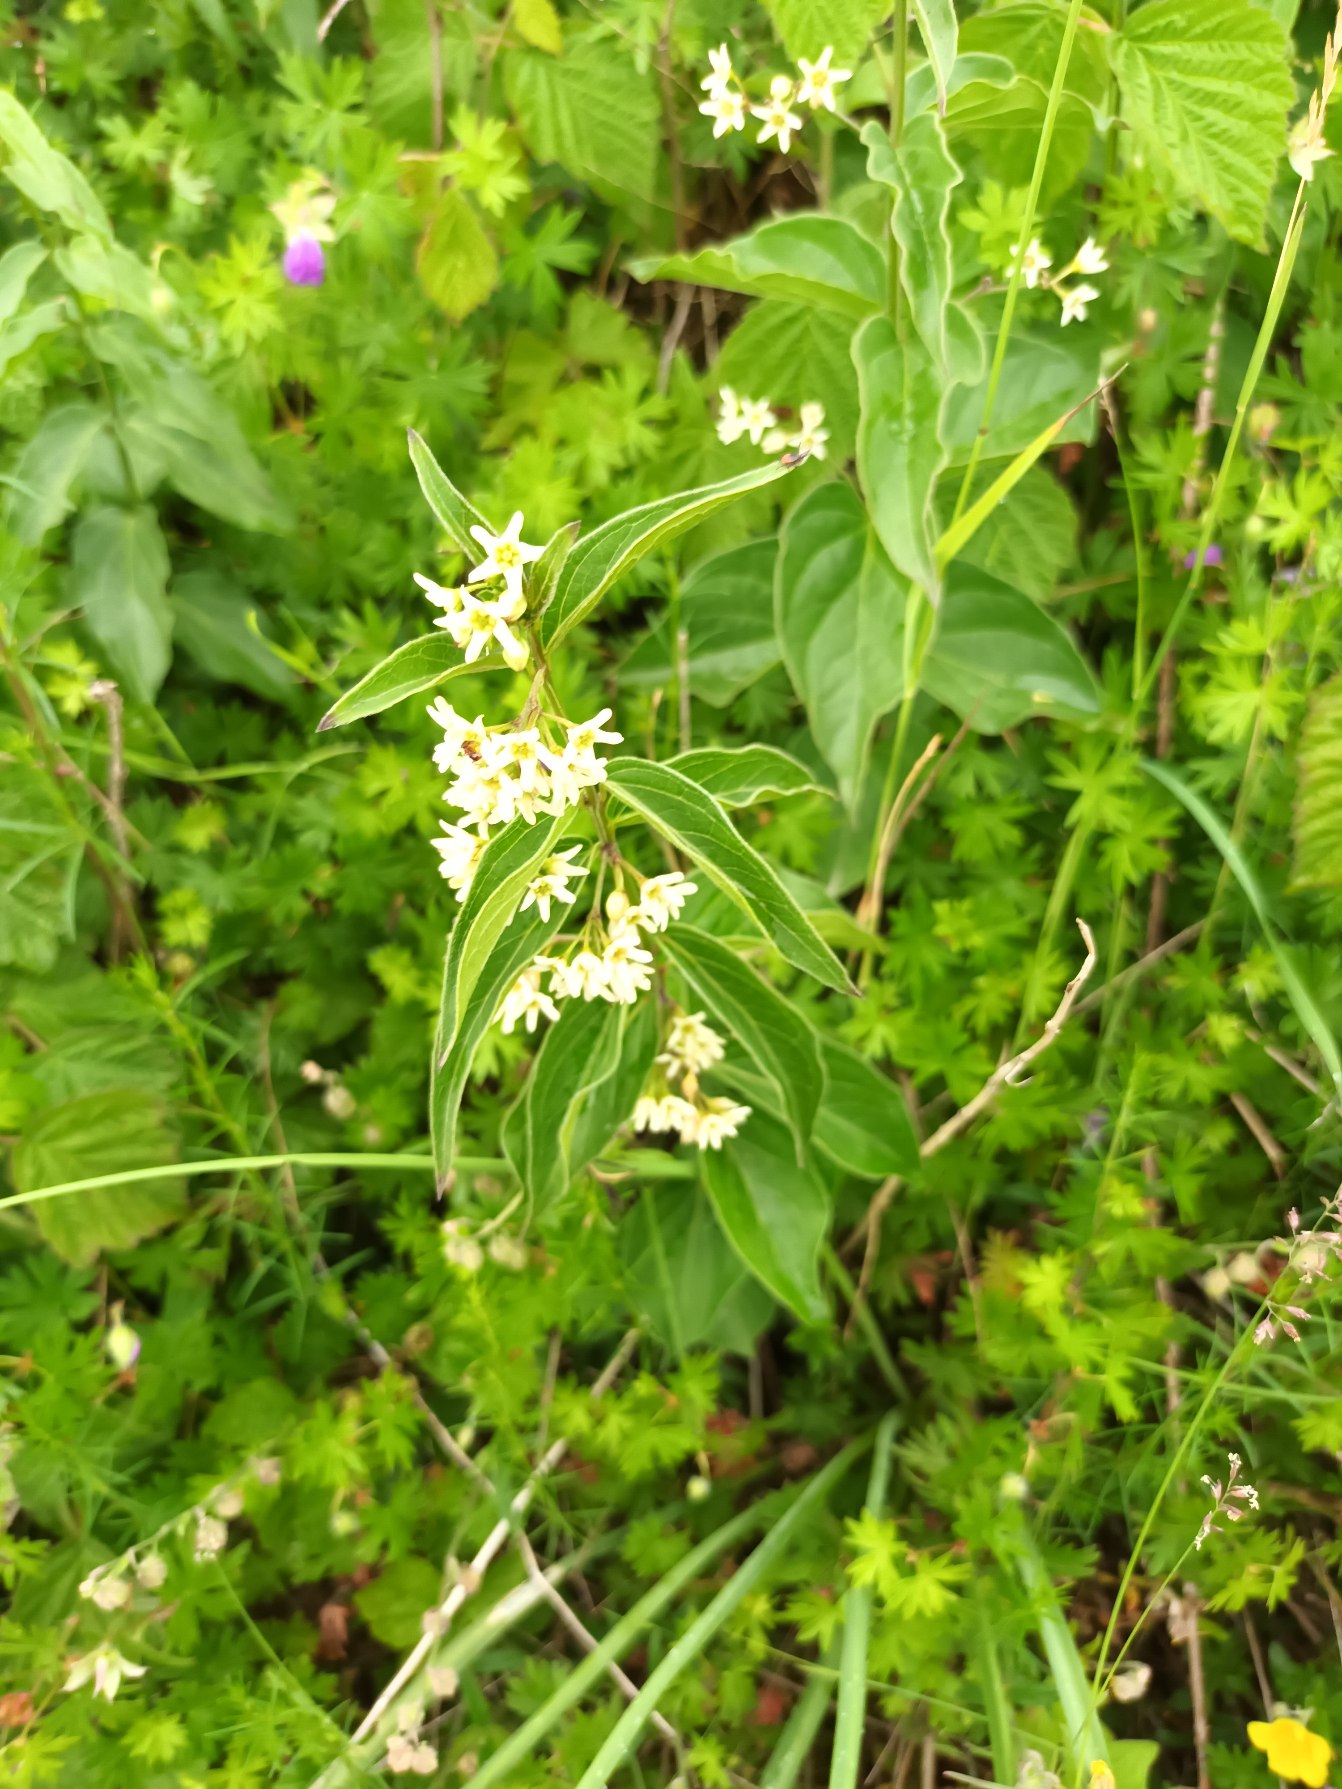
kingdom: Plantae
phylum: Tracheophyta
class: Magnoliopsida
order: Gentianales
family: Apocynaceae
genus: Vincetoxicum
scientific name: Vincetoxicum hirundinaria
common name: Svalerod
